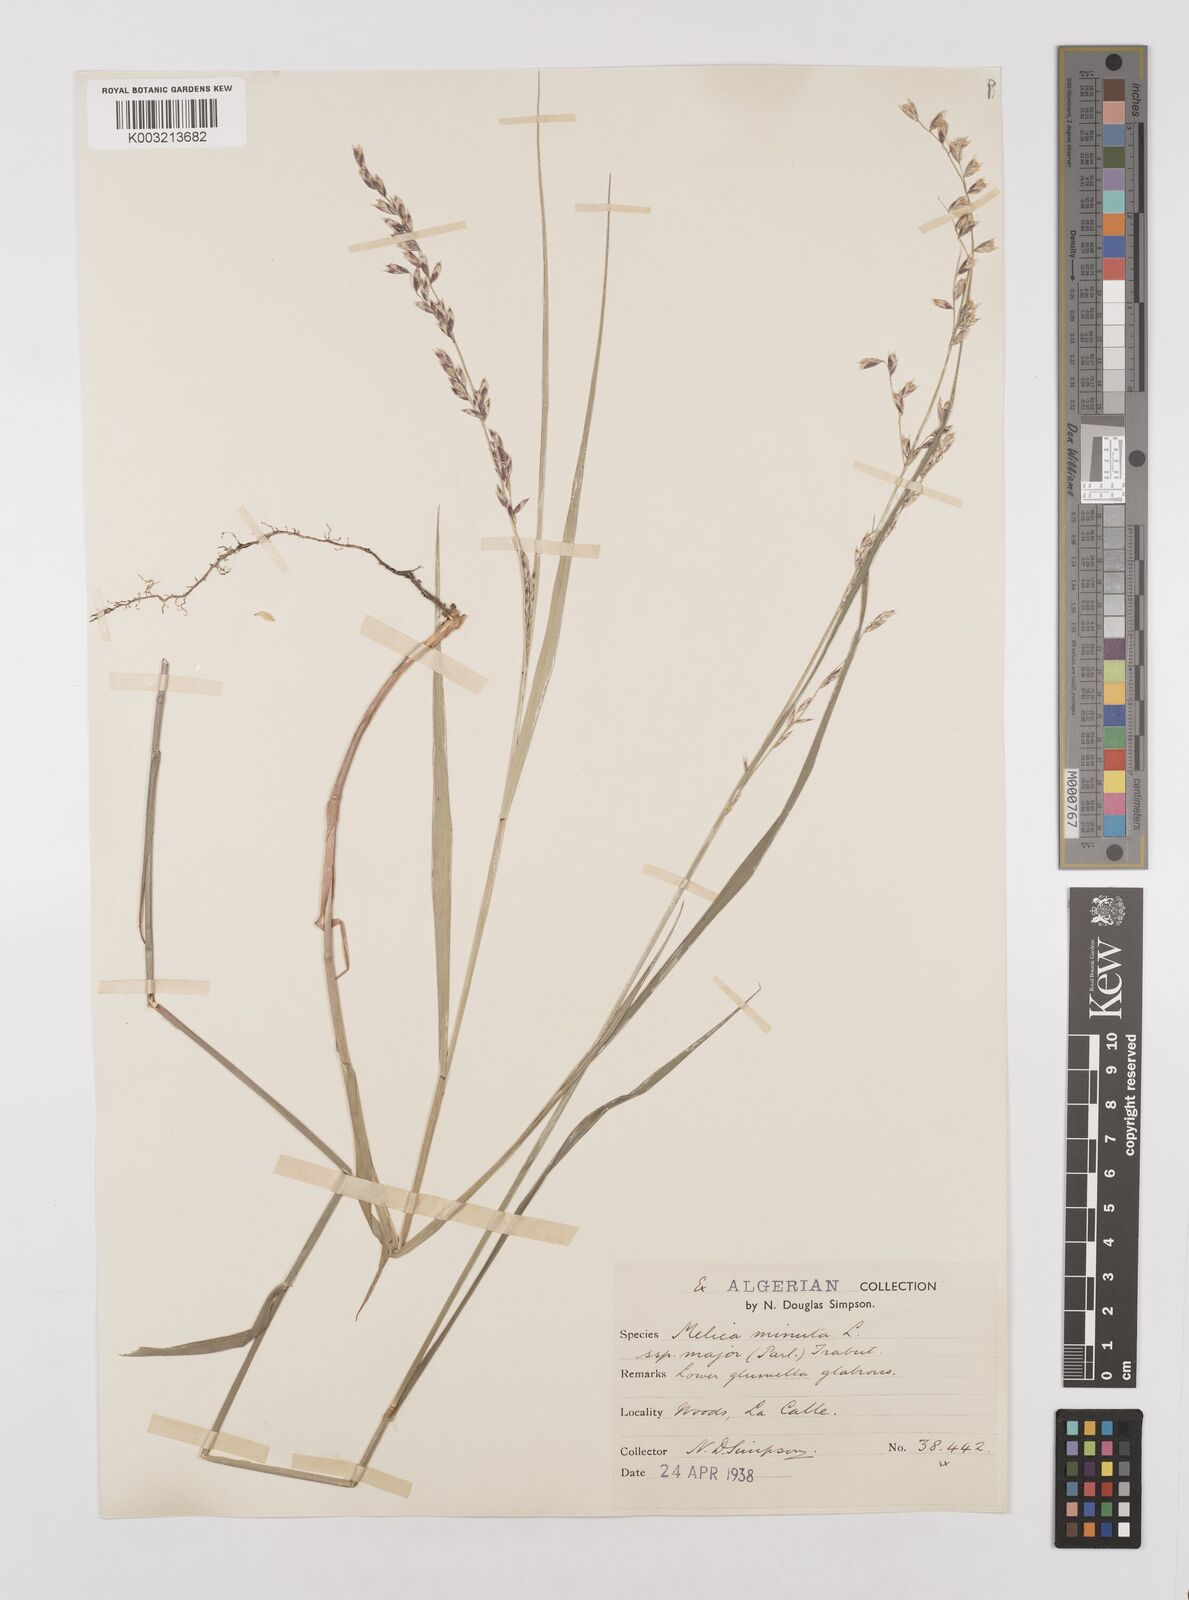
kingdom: Plantae
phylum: Tracheophyta
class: Liliopsida
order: Poales
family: Poaceae
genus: Melica
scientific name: Melica minuta
